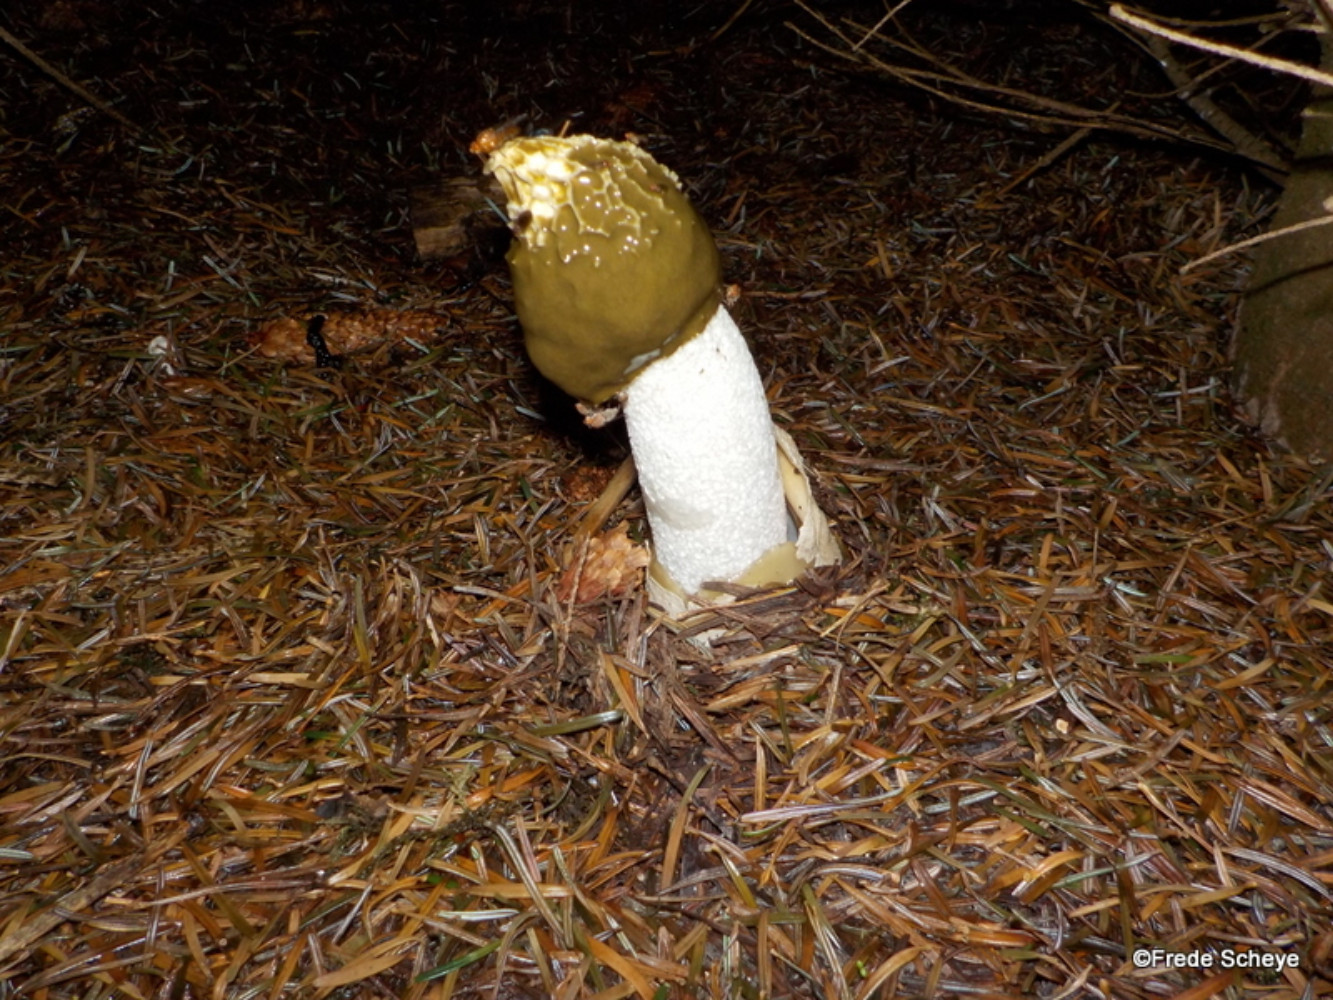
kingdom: Fungi
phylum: Basidiomycota
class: Agaricomycetes
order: Phallales
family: Phallaceae
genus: Phallus
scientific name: Phallus impudicus
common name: almindelig stinksvamp
